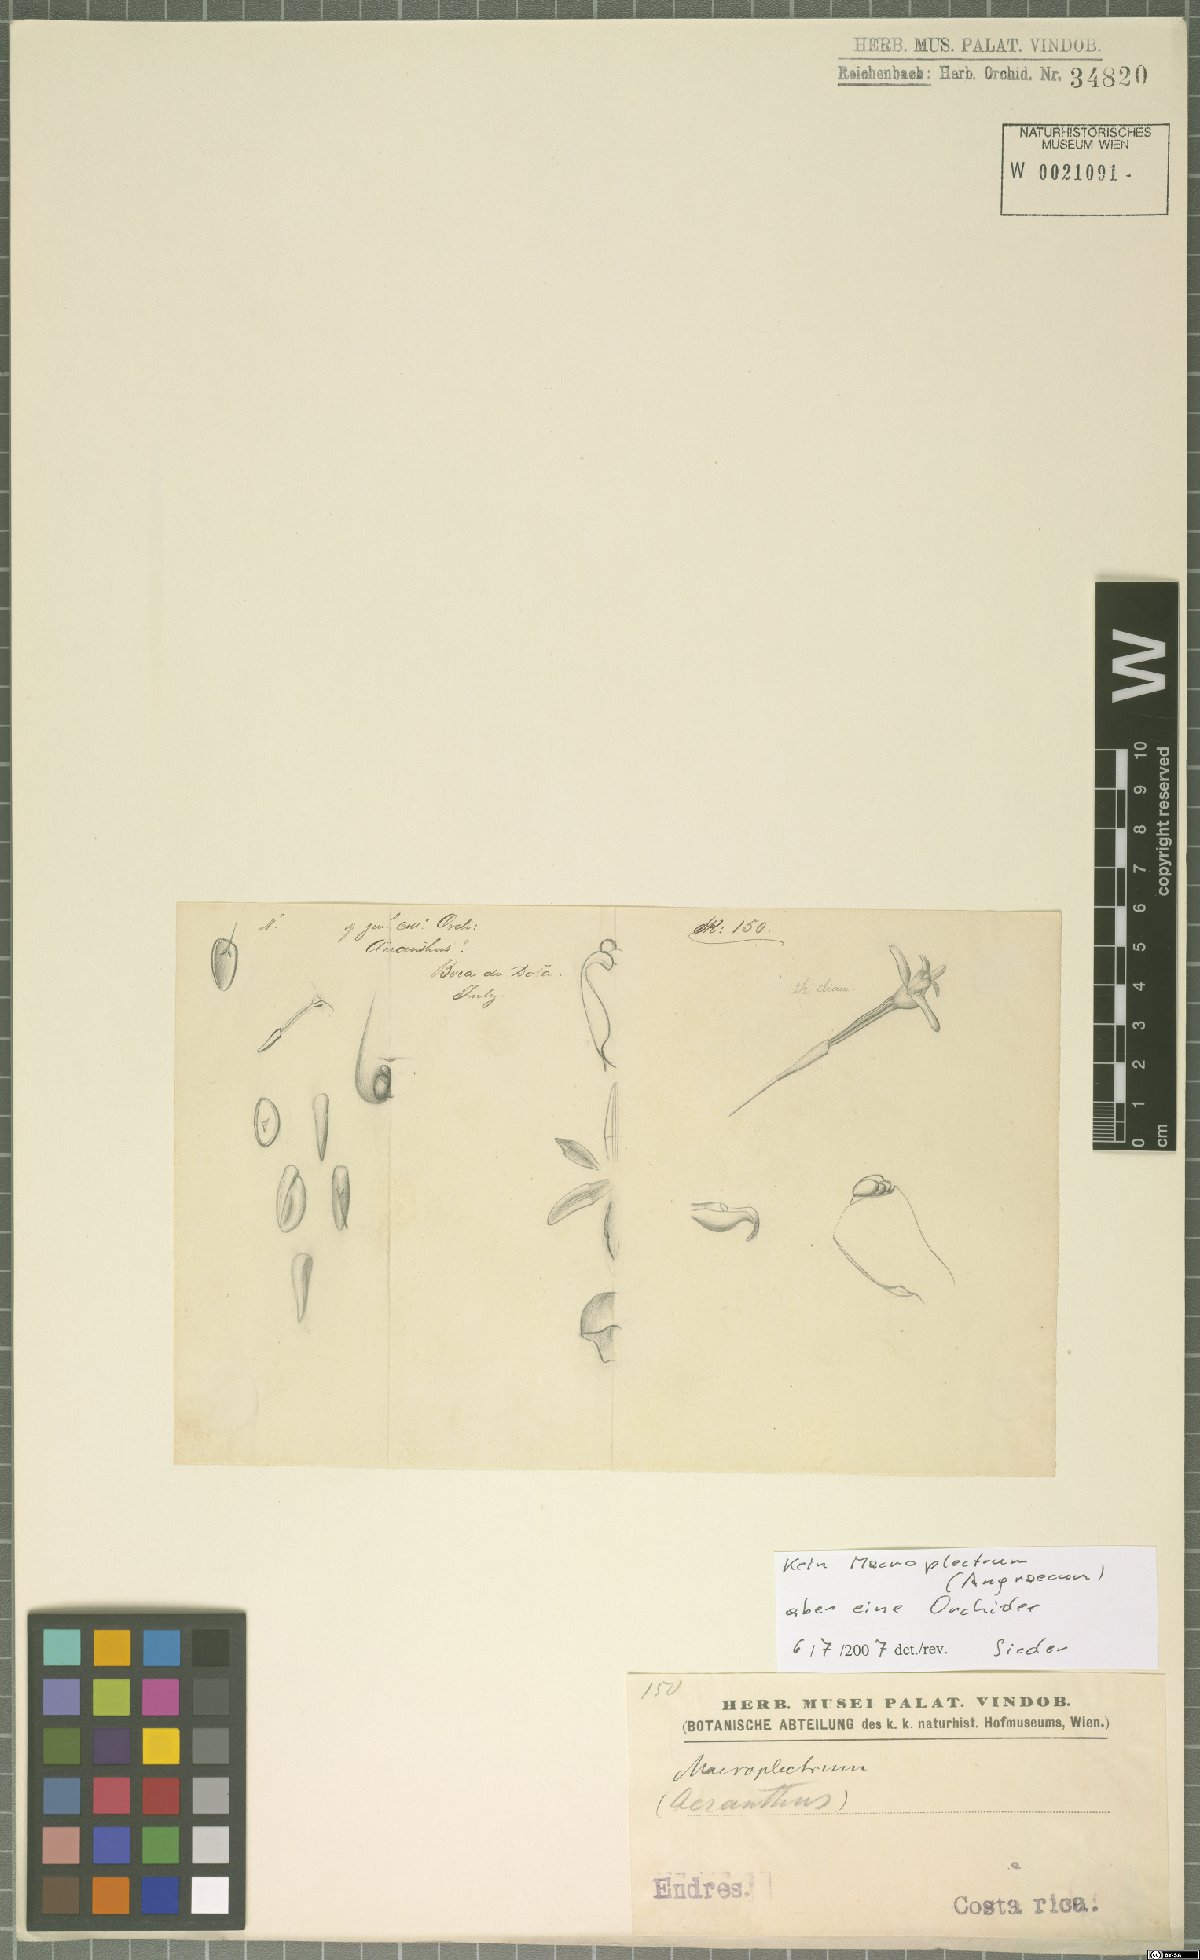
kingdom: Plantae
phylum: Tracheophyta
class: Liliopsida
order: Asparagales
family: Orchidaceae
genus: Maxillaria
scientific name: Maxillaria standleyi
